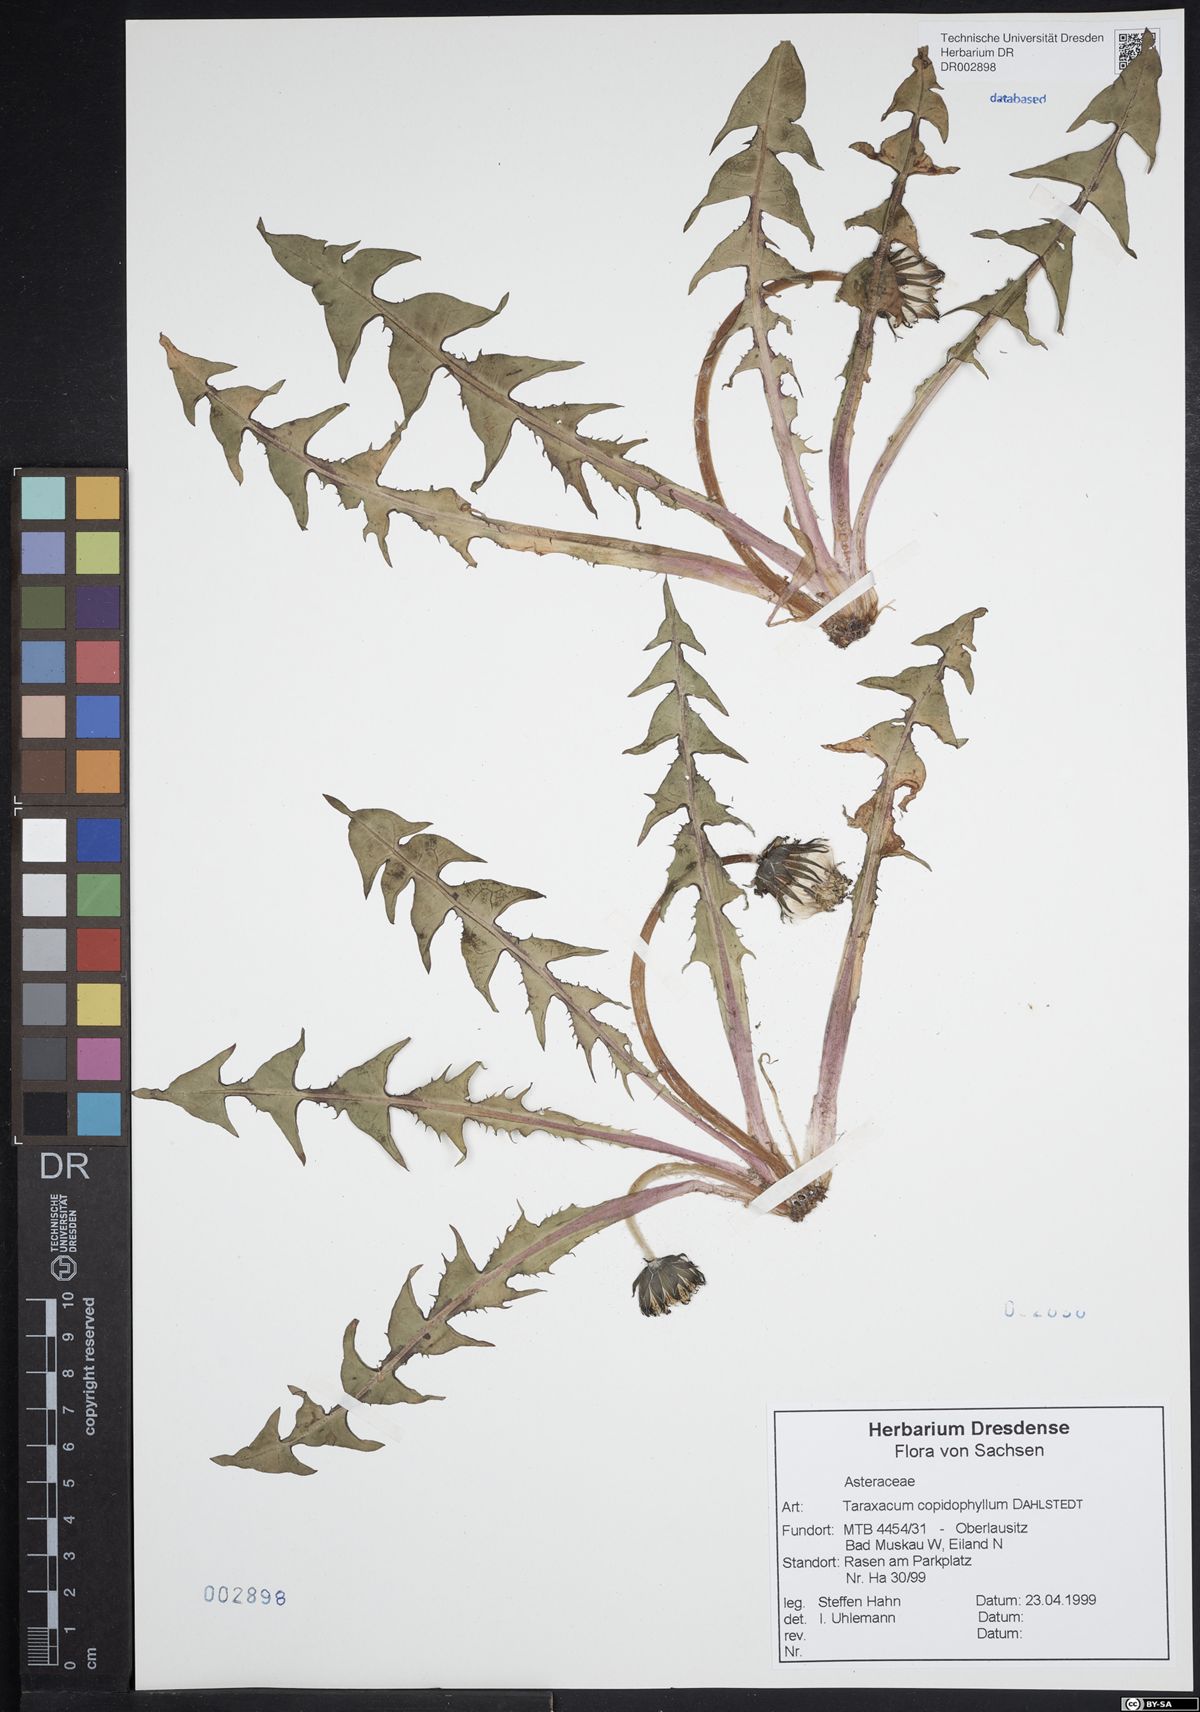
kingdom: Plantae
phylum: Tracheophyta
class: Magnoliopsida
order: Asterales
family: Asteraceae
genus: Taraxacum
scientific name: Taraxacum copidophyllum
